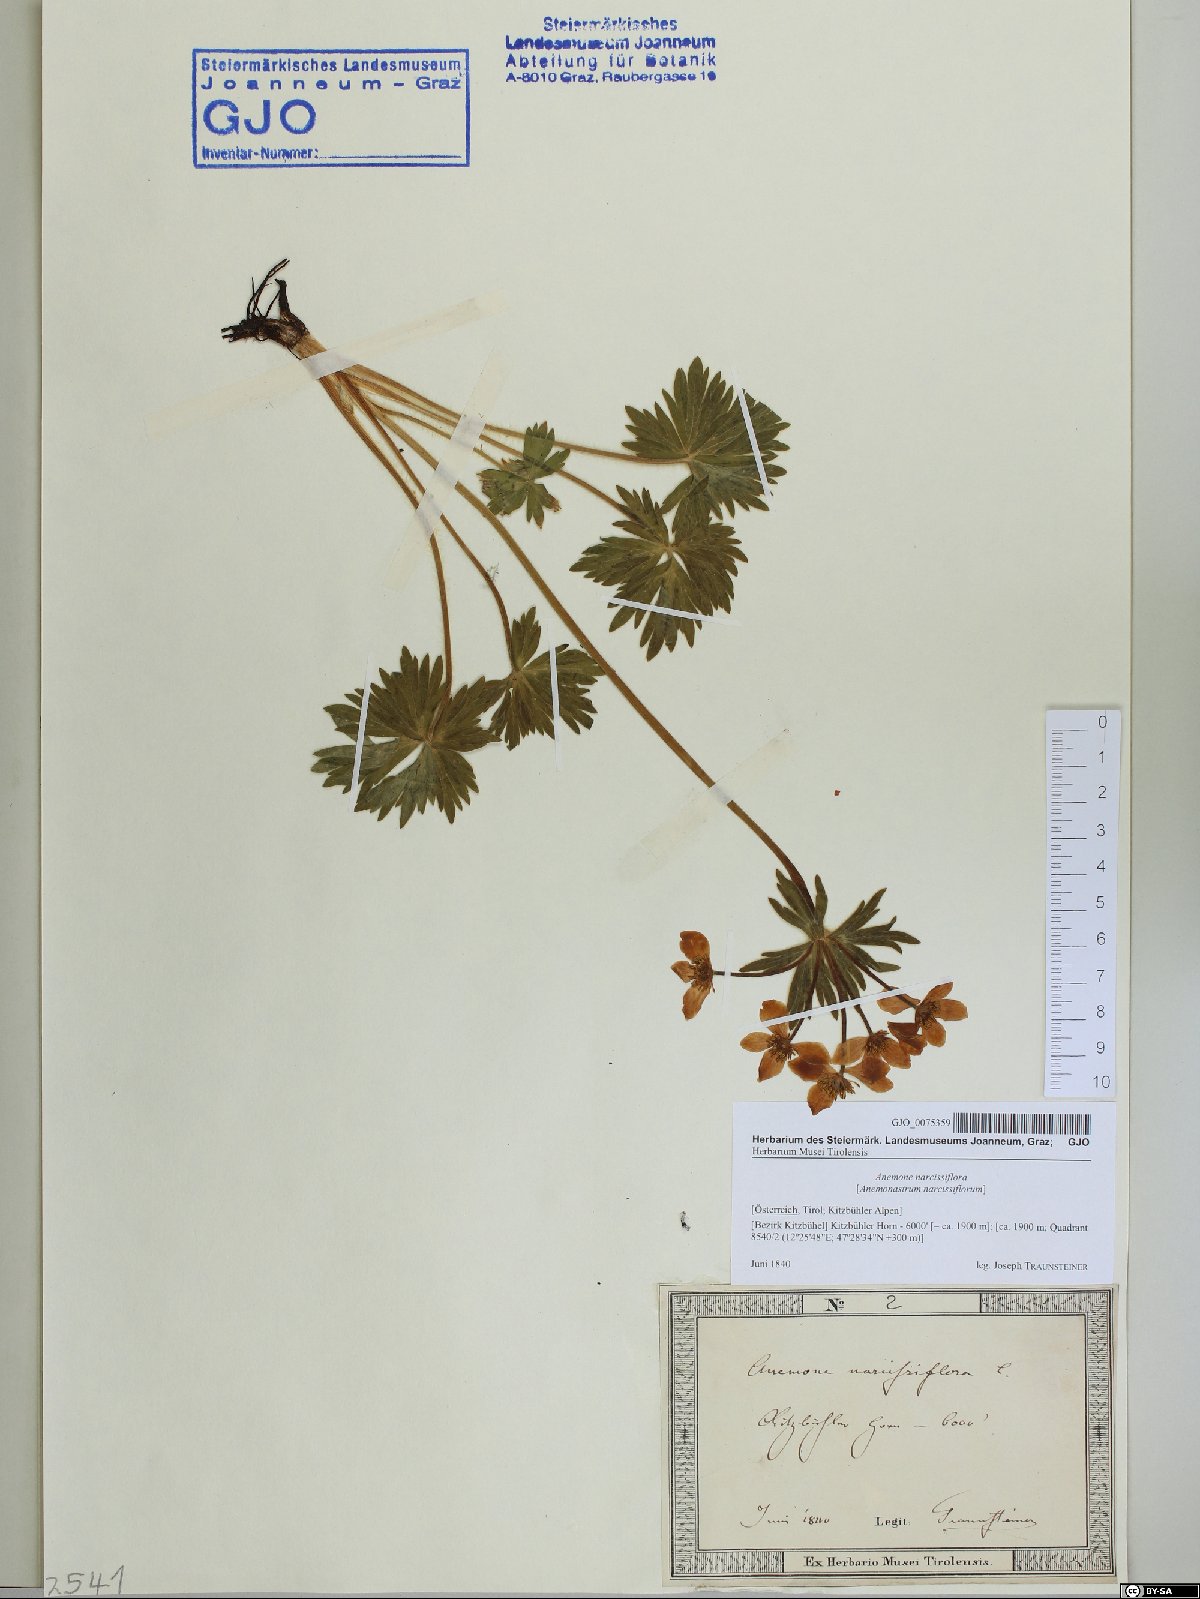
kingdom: Plantae
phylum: Tracheophyta
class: Magnoliopsida
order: Ranunculales
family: Ranunculaceae
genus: Anemonastrum
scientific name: Anemonastrum narcissiflorum
